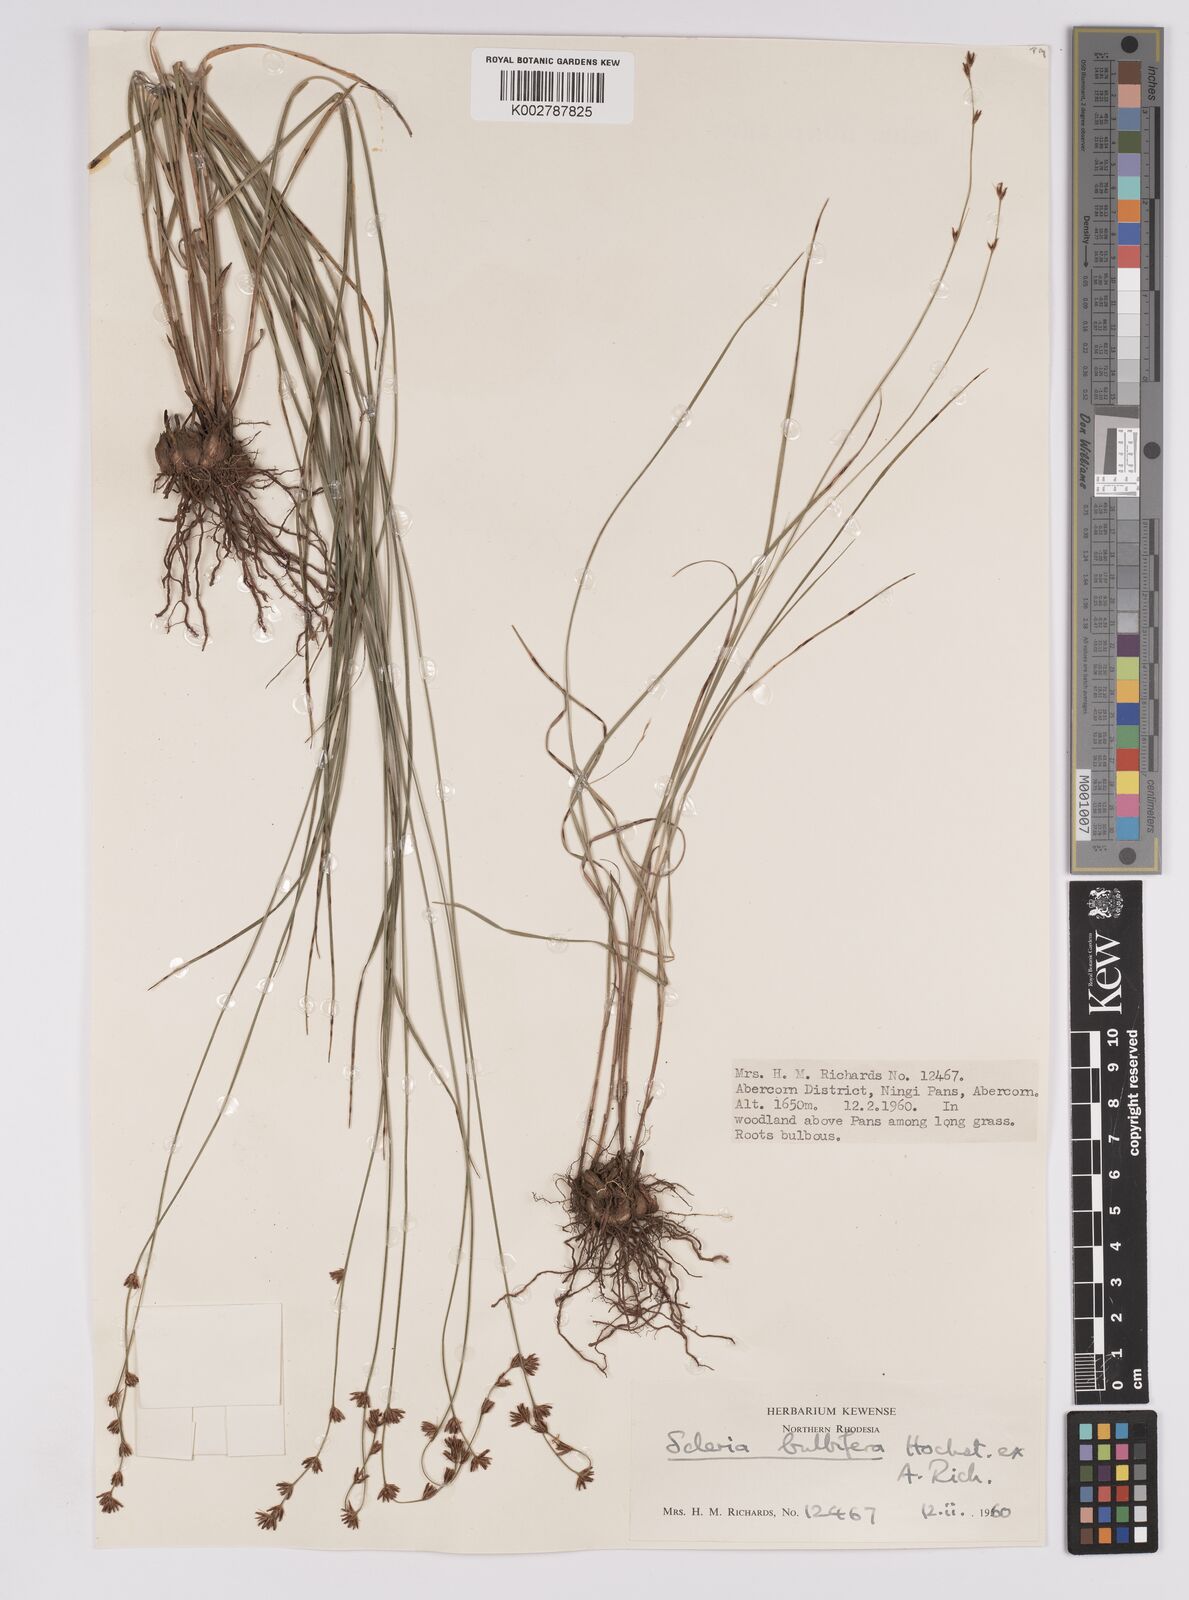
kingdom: Plantae
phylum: Tracheophyta
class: Liliopsida
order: Poales
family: Cyperaceae
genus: Scleria
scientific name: Scleria bulbifera
